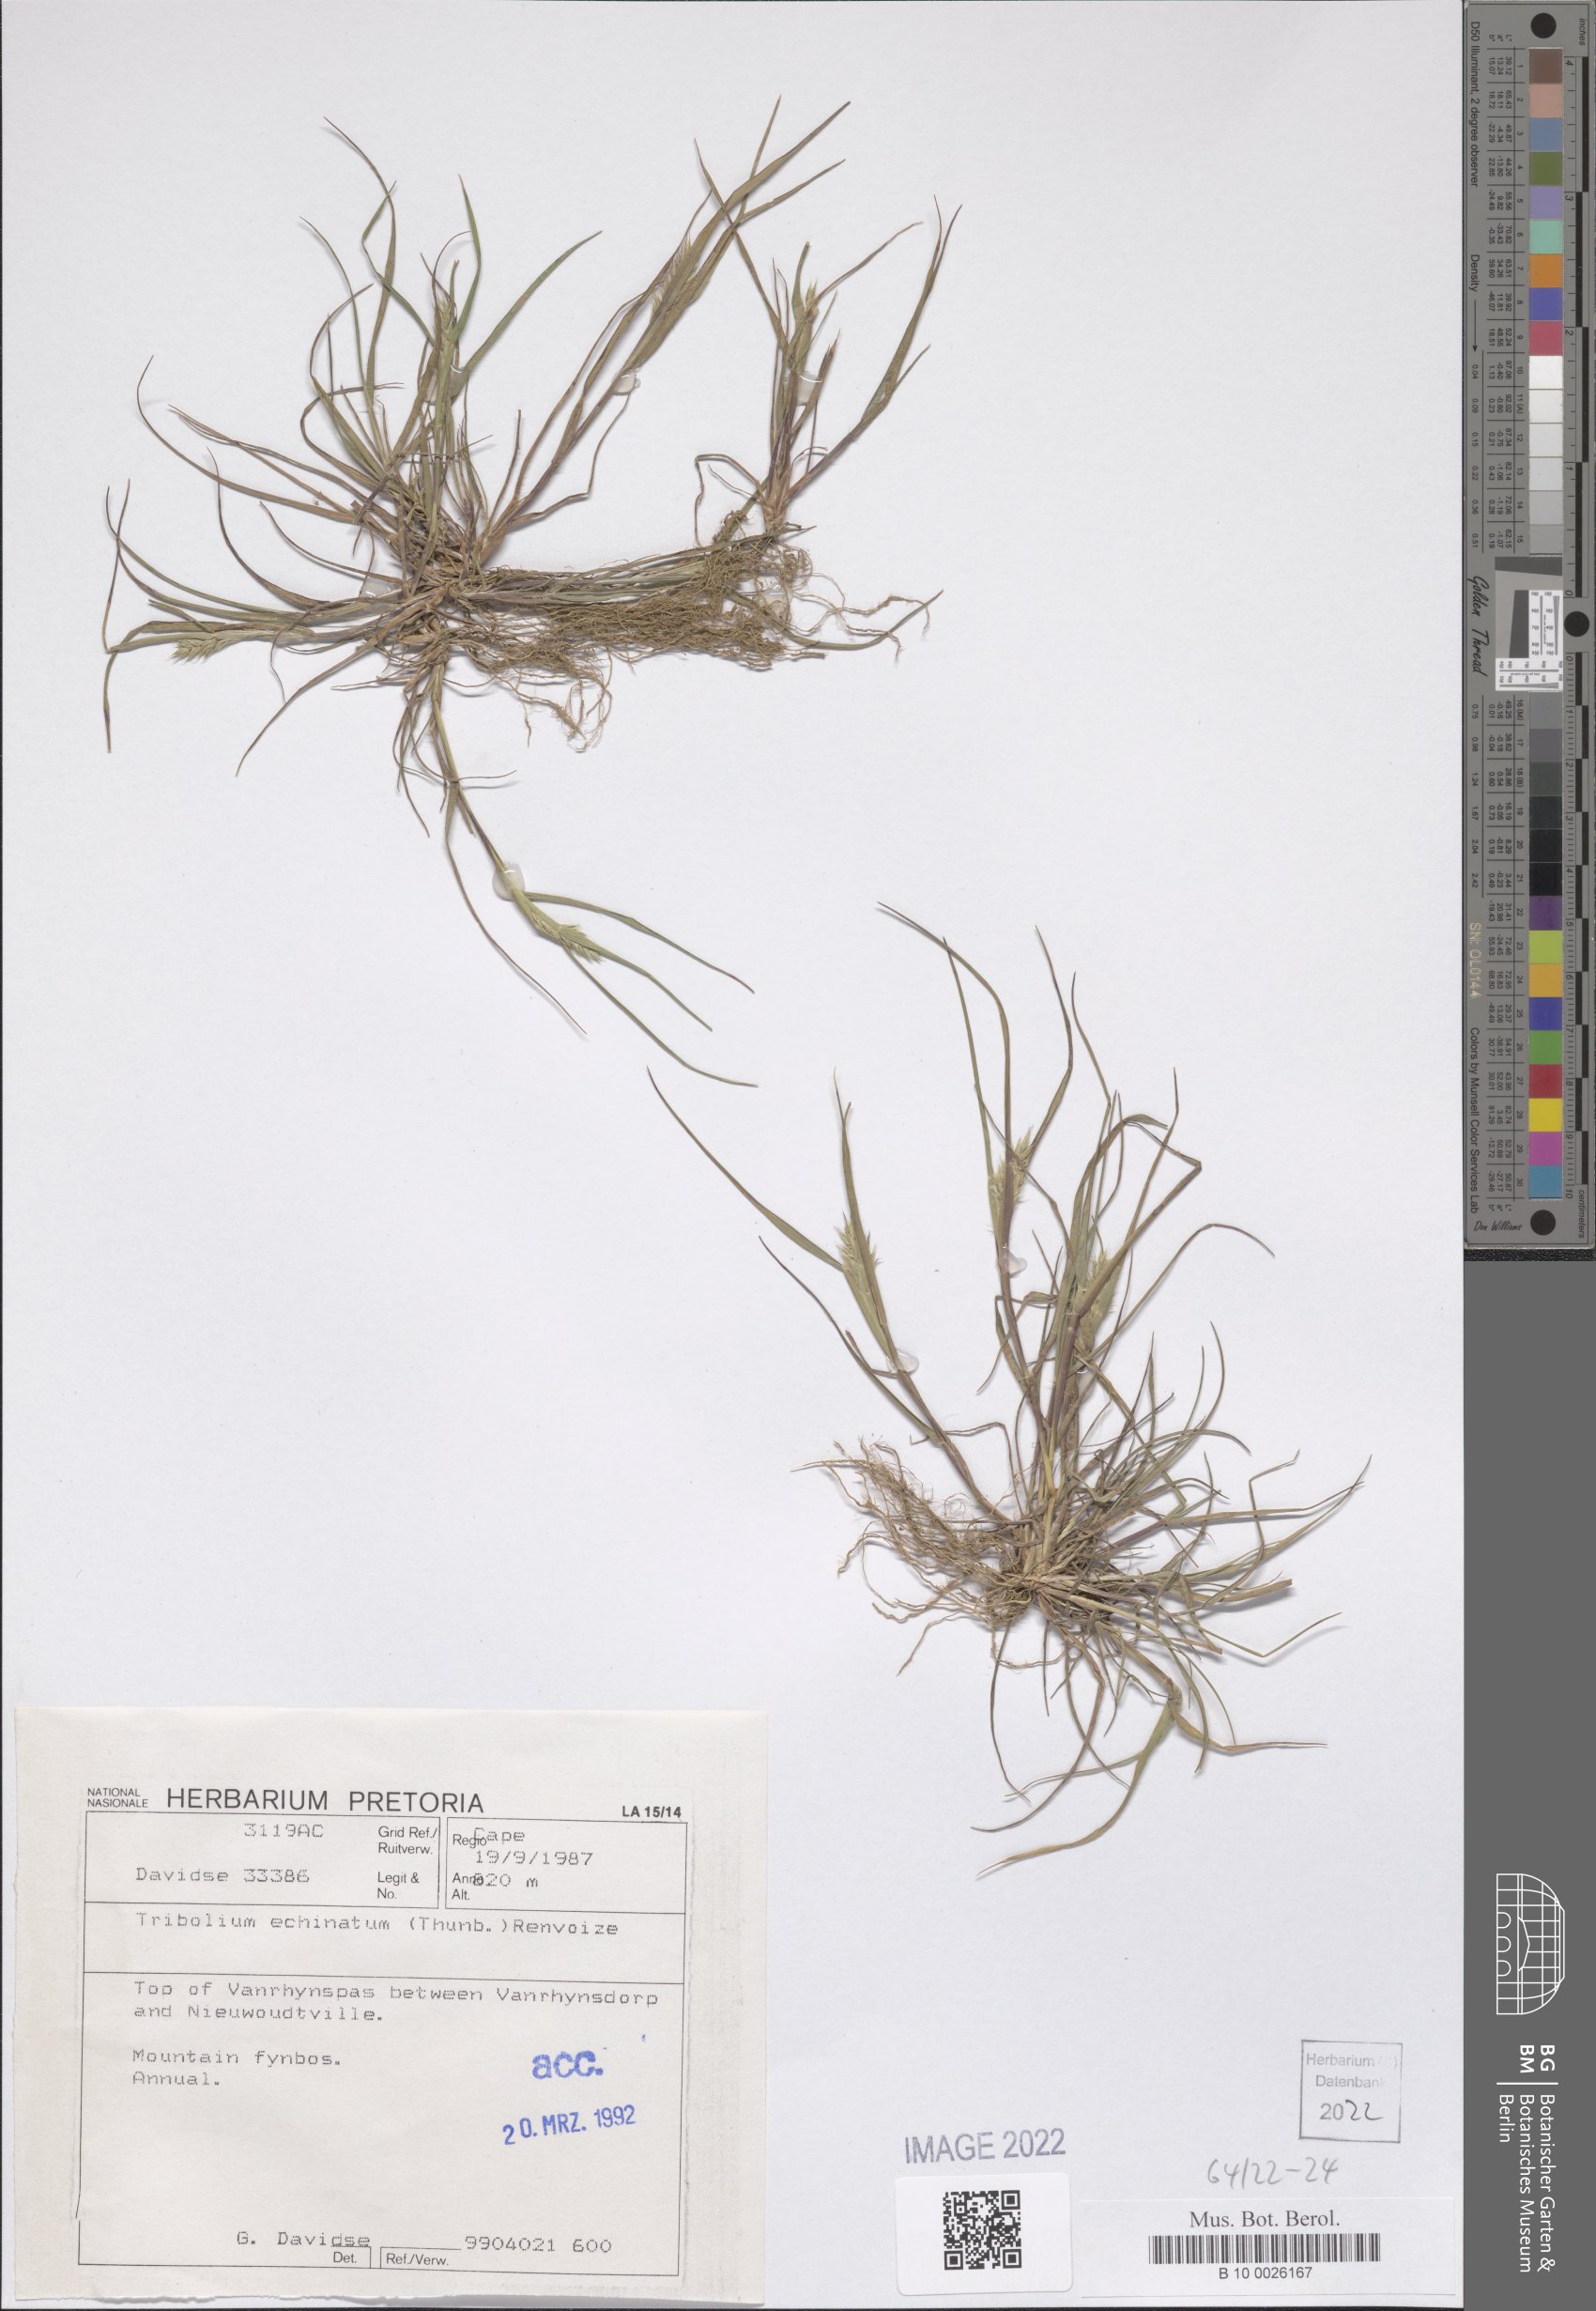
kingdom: Plantae
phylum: Tracheophyta
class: Liliopsida
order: Poales
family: Poaceae
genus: Tribolium
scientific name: Tribolium echinatum
